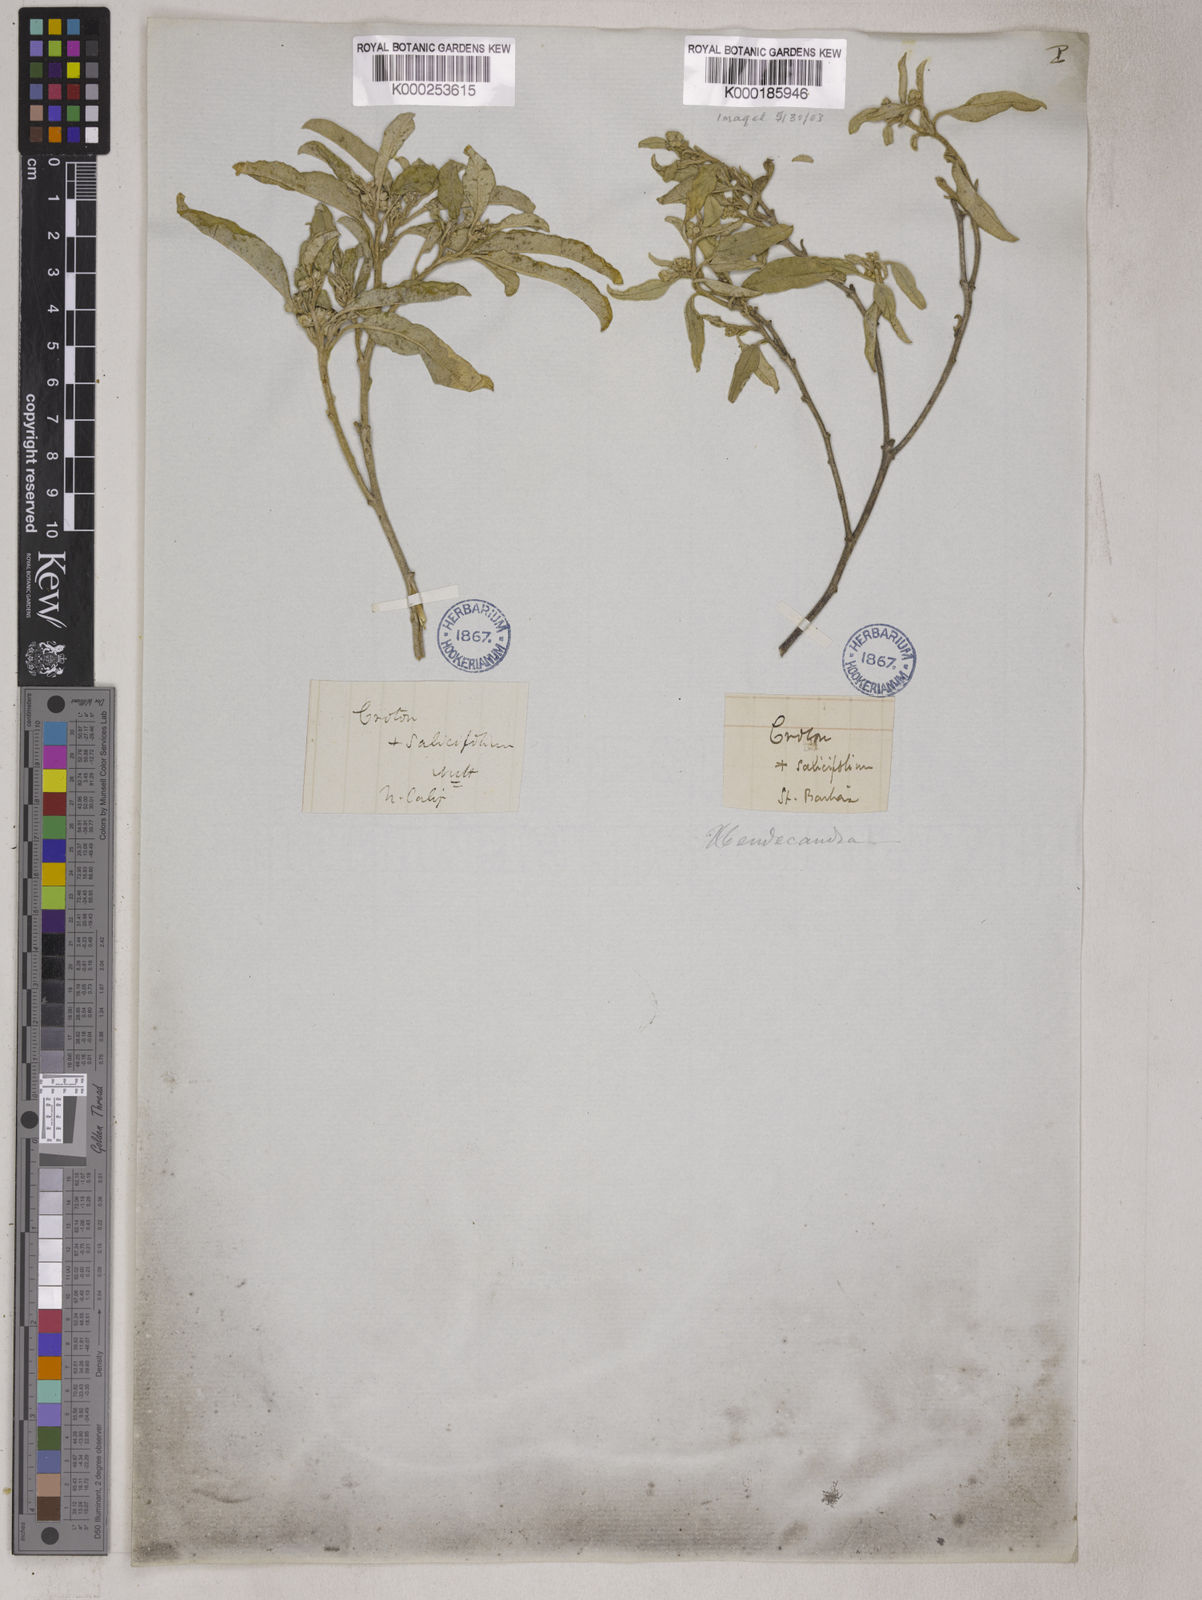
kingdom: Plantae
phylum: Tracheophyta
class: Magnoliopsida
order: Malpighiales
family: Euphorbiaceae
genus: Croton
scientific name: Croton
